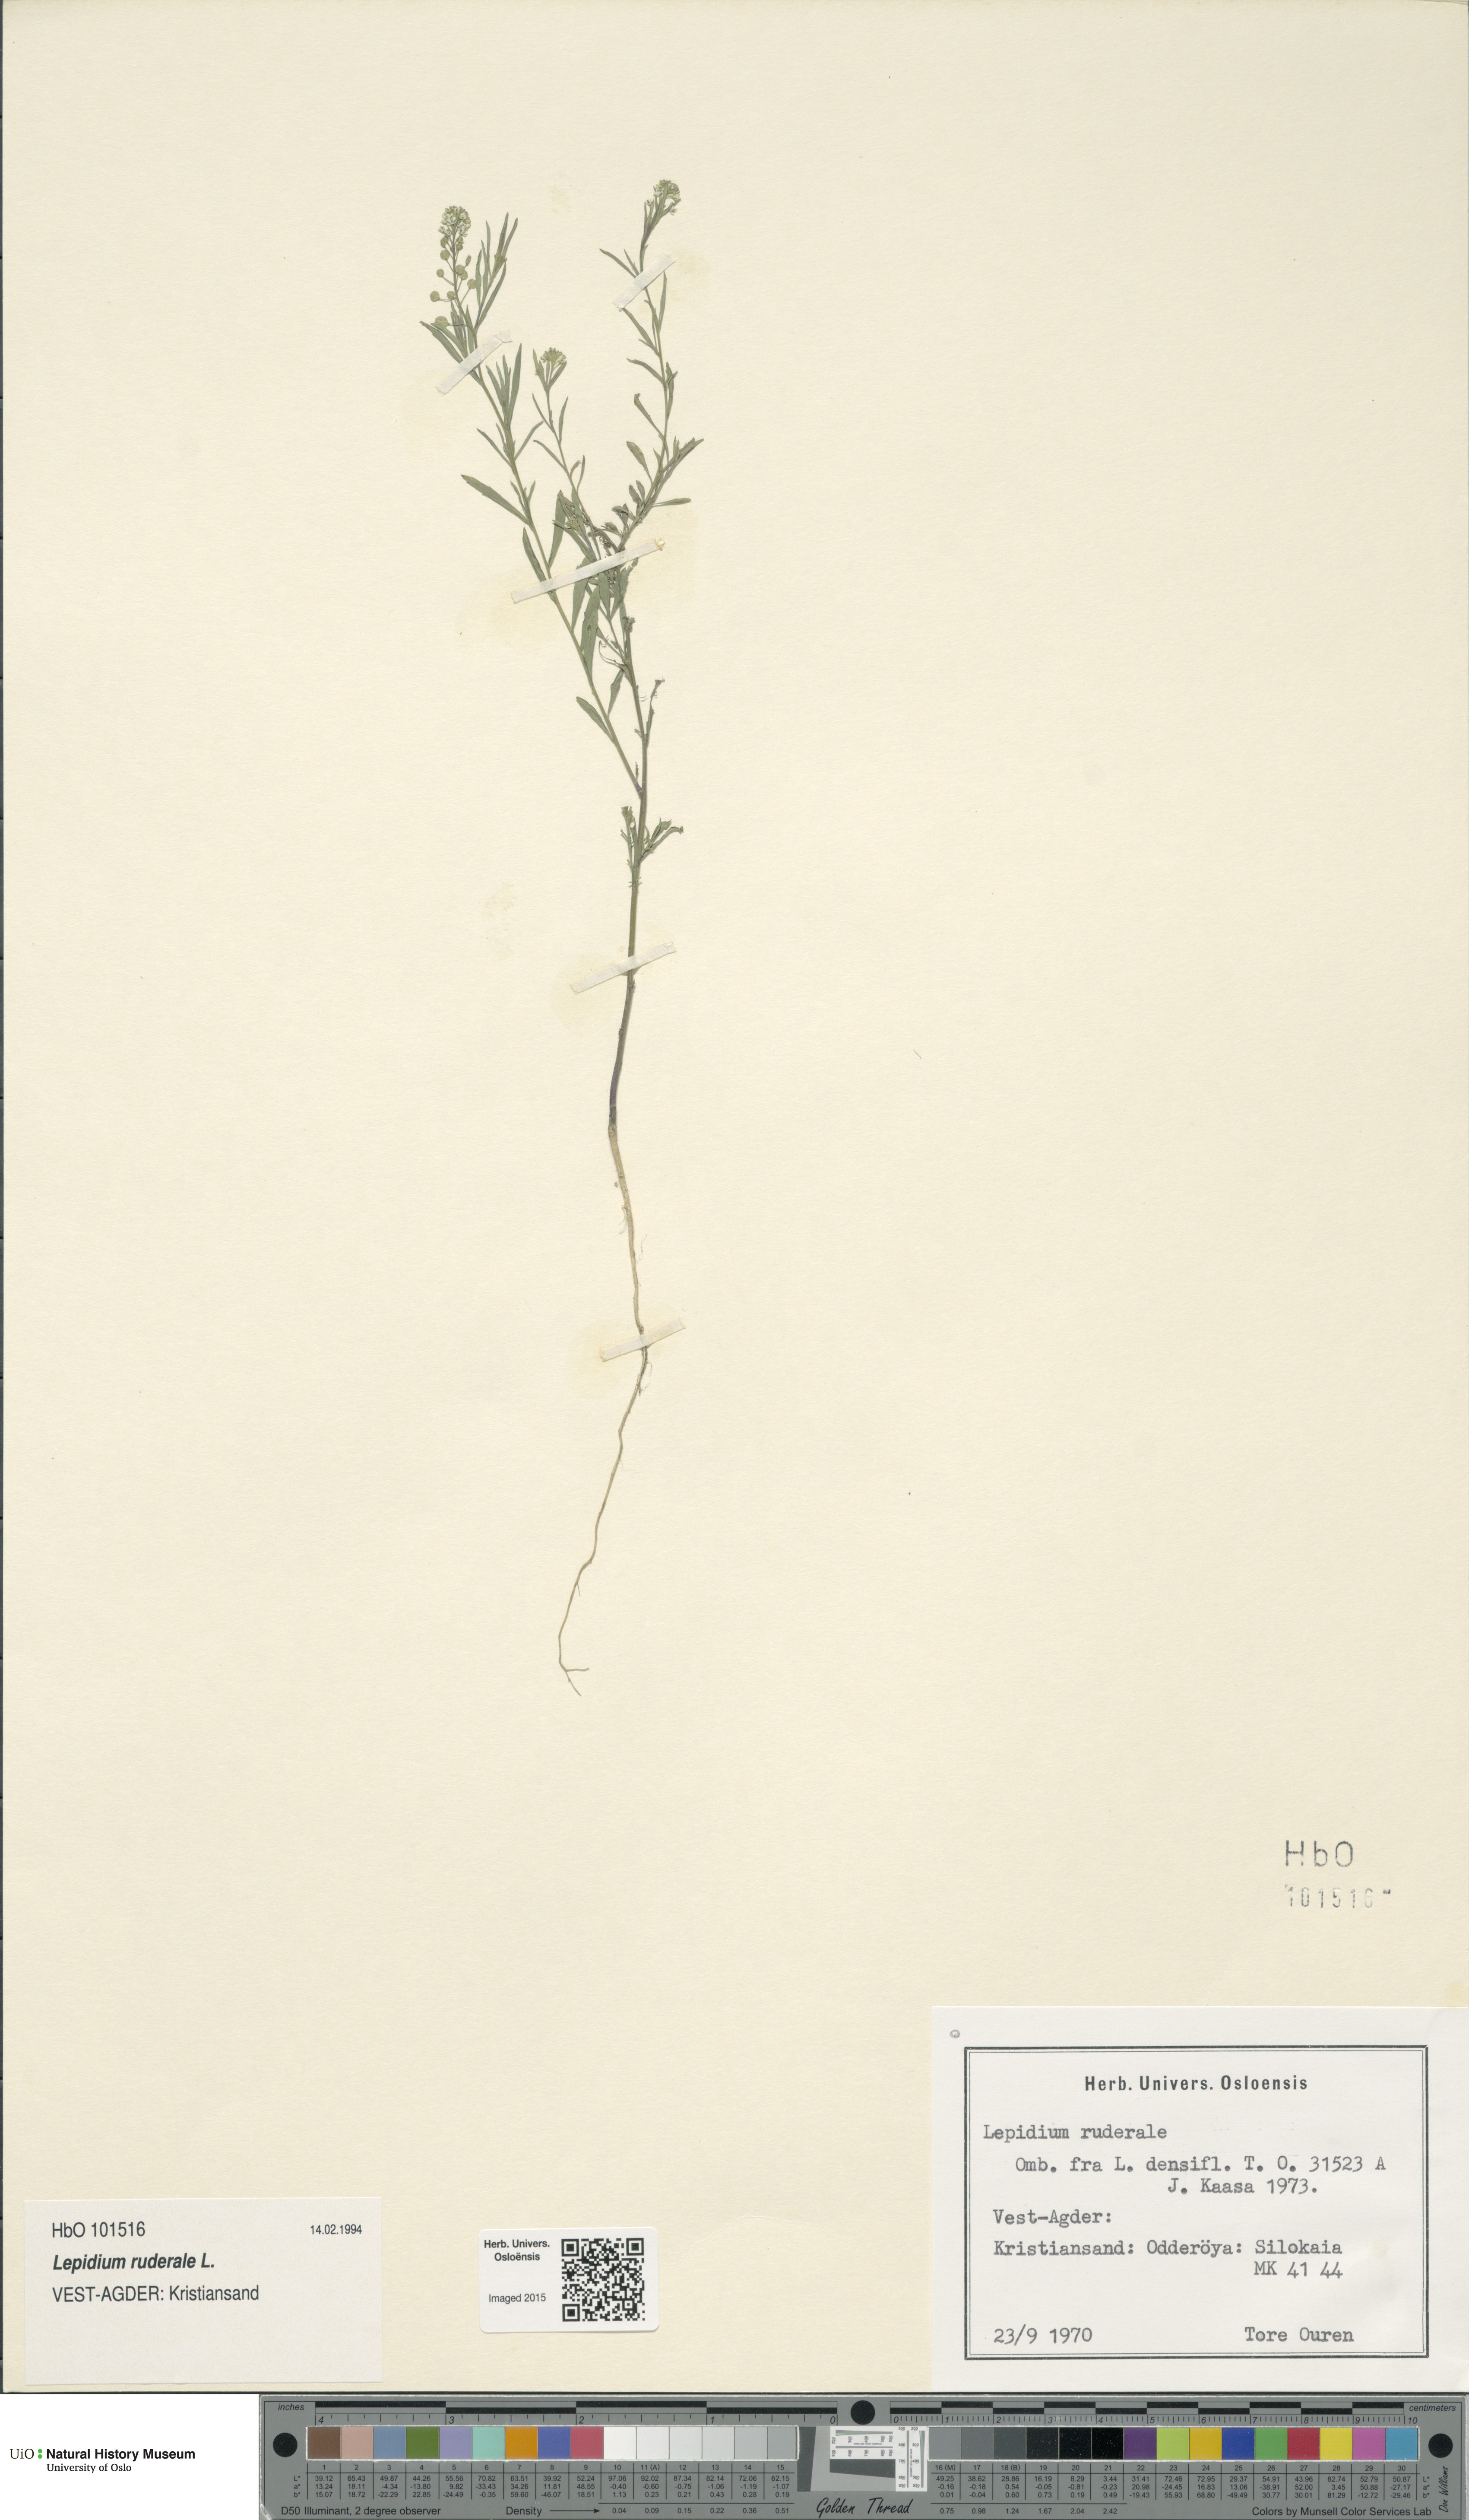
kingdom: Plantae
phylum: Tracheophyta
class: Magnoliopsida
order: Brassicales
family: Brassicaceae
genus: Lepidium
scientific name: Lepidium ruderale
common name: Narrow-leaved pepperwort
